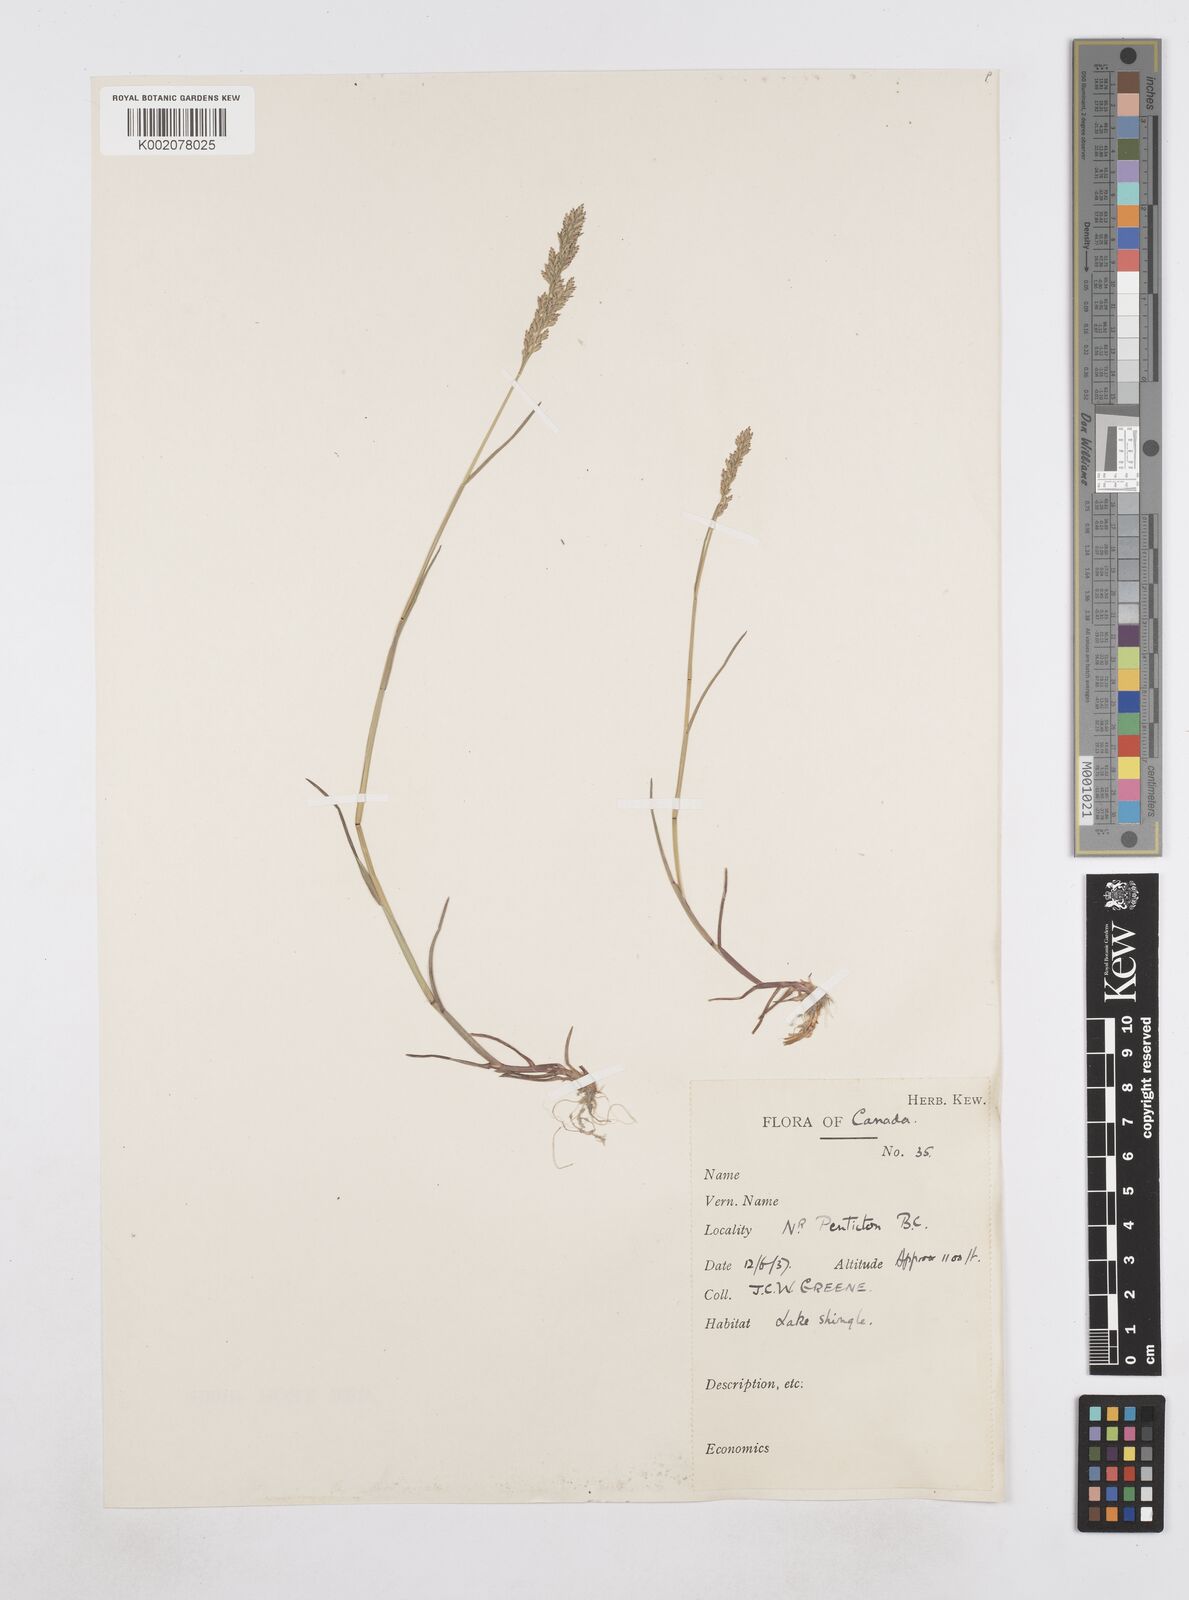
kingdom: Plantae
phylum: Tracheophyta
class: Liliopsida
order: Poales
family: Poaceae
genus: Poa
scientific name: Poa
